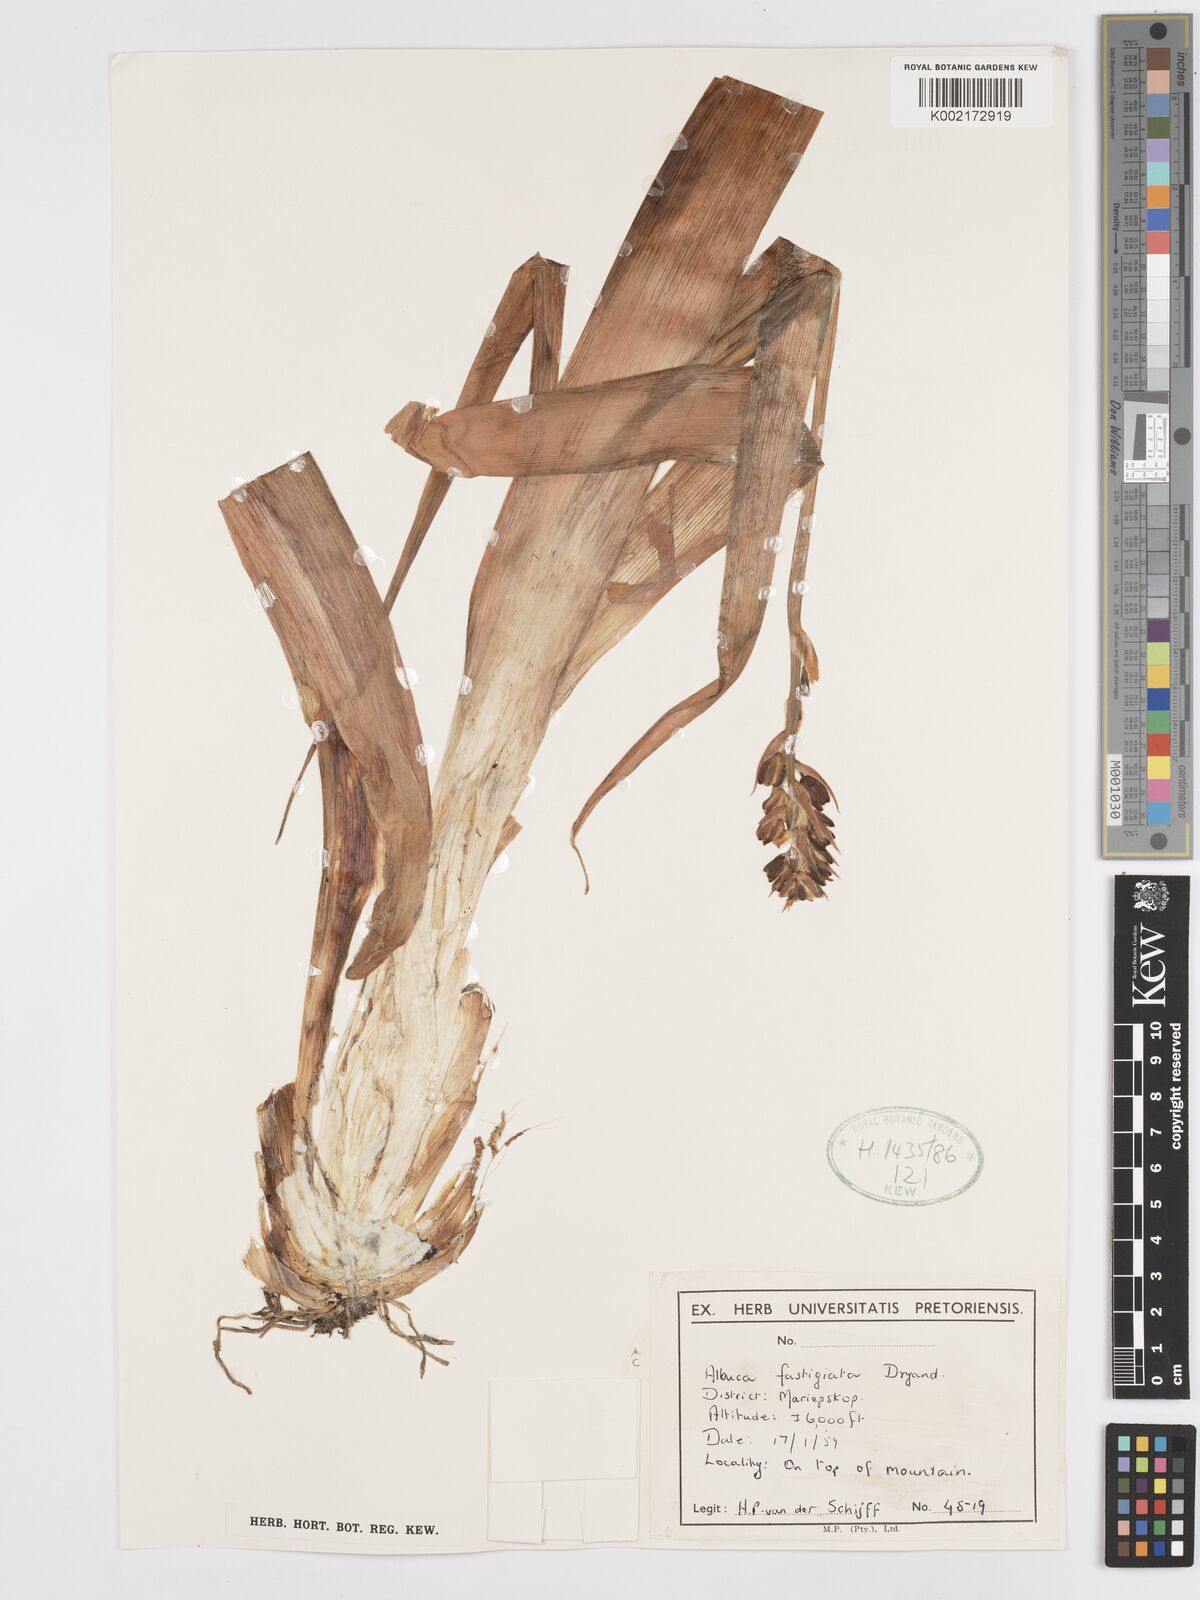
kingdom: Plantae
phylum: Tracheophyta
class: Liliopsida
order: Asparagales
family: Asparagaceae
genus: Albuca
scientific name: Albuca fastigiata
